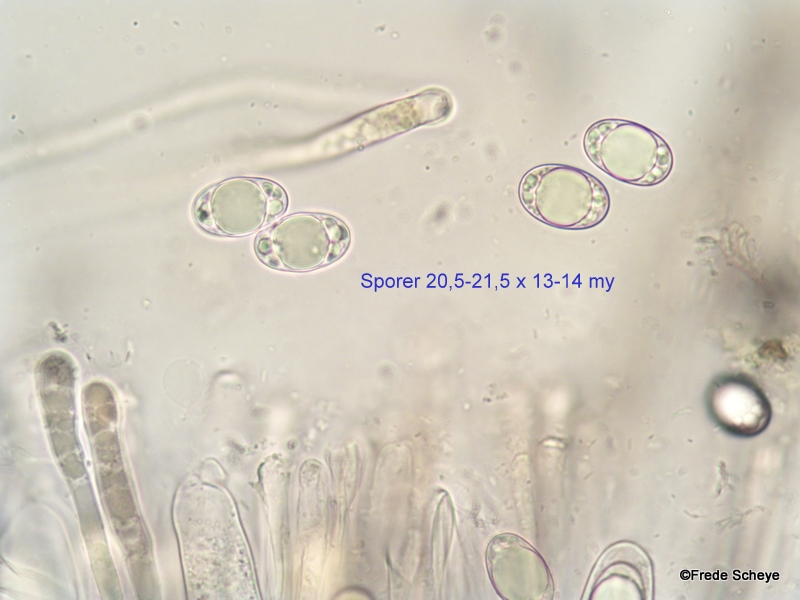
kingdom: Fungi
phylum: Ascomycota
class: Pezizomycetes
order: Pezizales
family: Helvellaceae
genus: Helvella
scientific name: Helvella elastica
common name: elastik-foldhat
